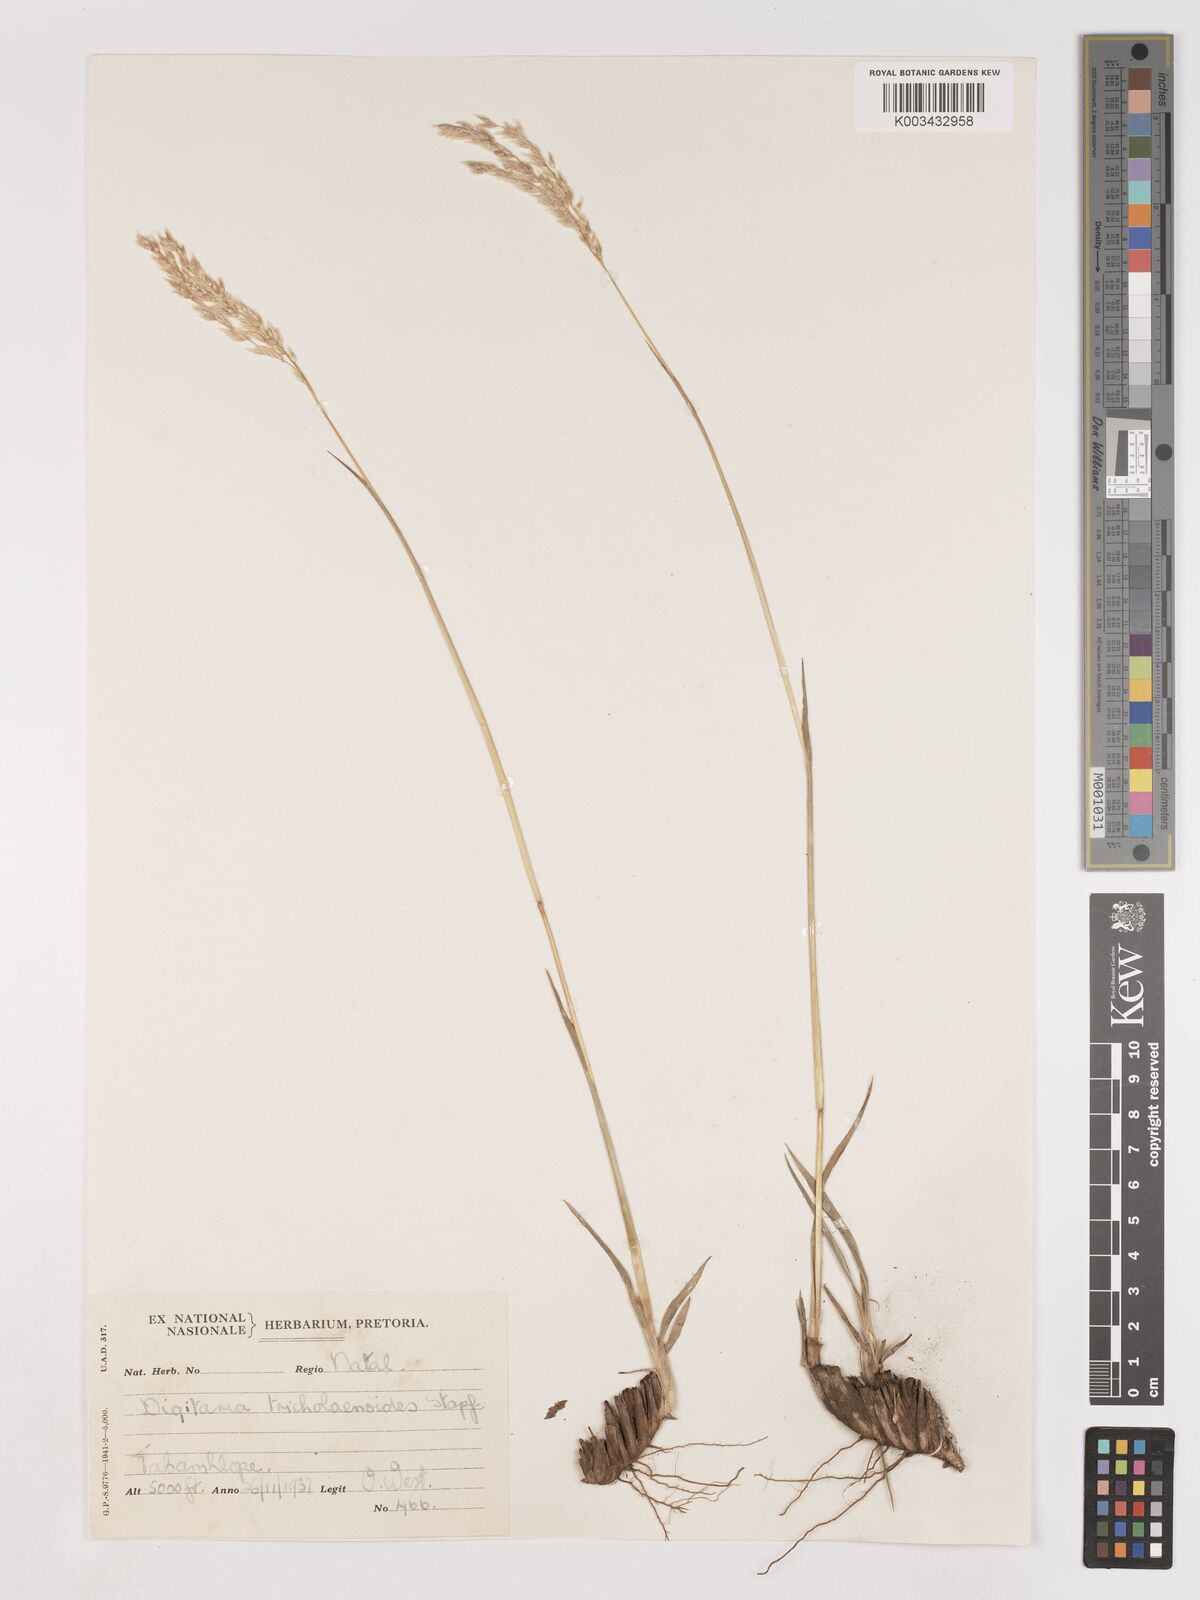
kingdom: Plantae
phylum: Tracheophyta
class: Liliopsida
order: Poales
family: Poaceae
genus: Digitaria
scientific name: Digitaria tricholaenoides
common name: Purple finger grass
